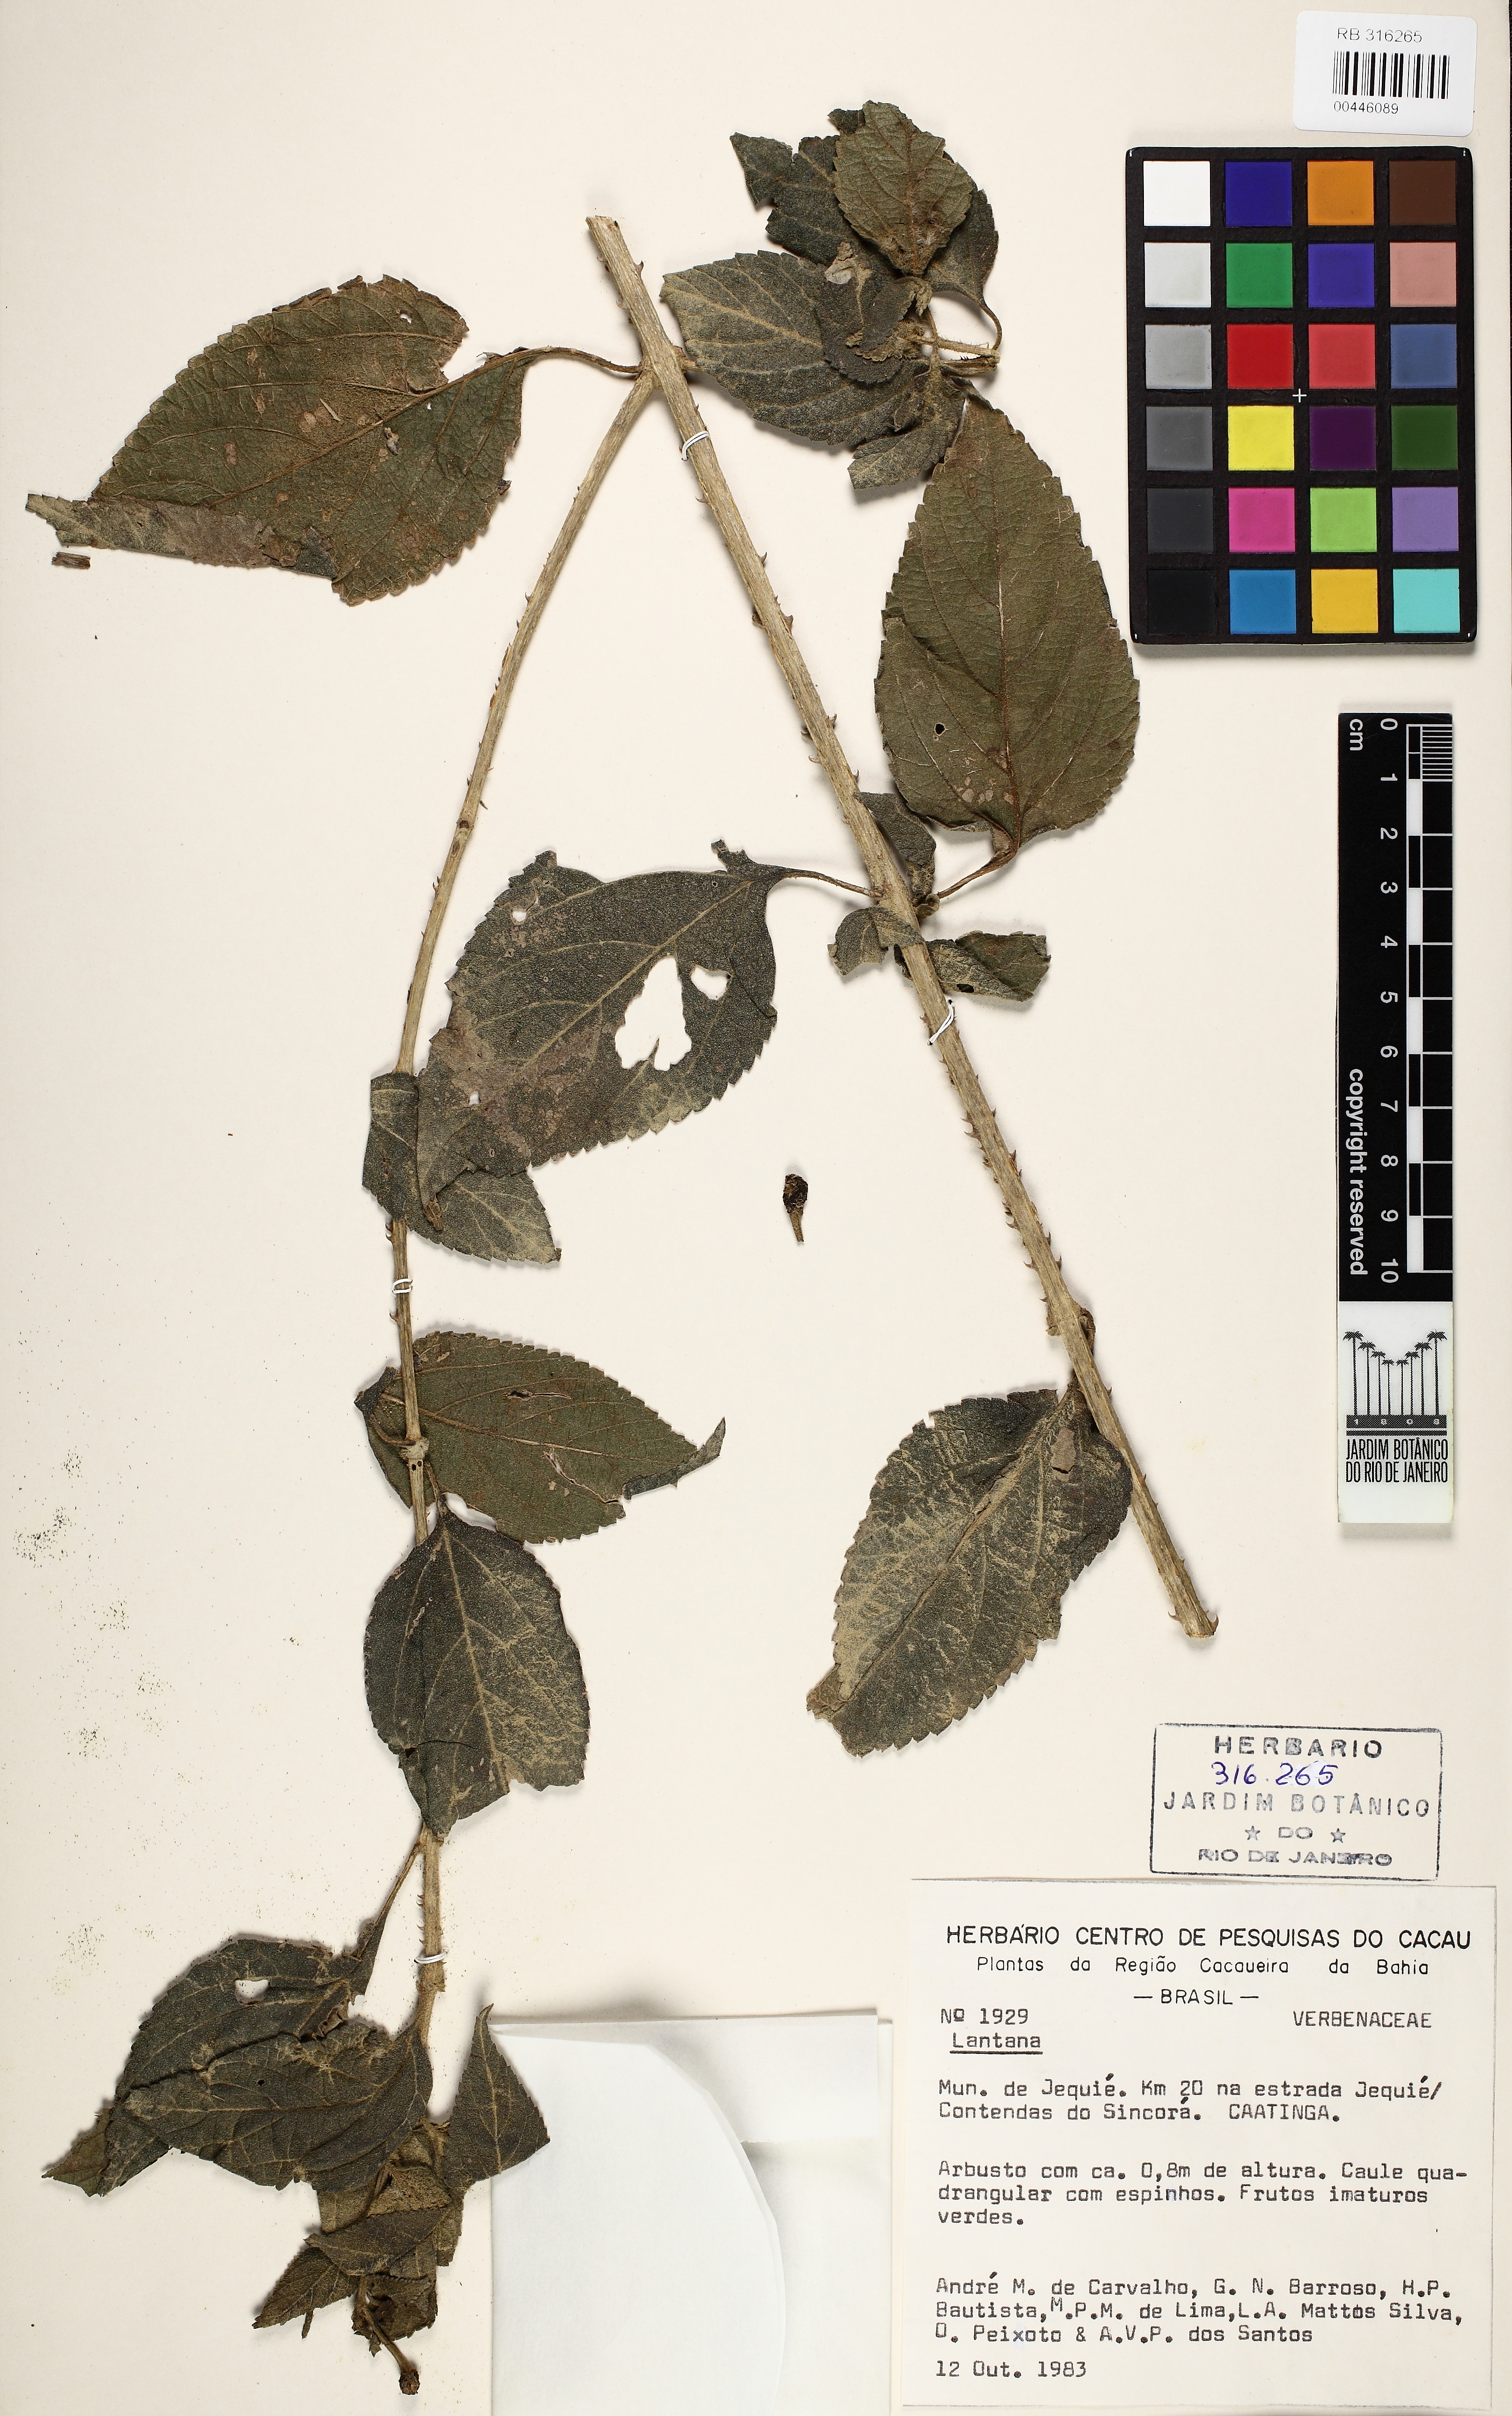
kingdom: Plantae
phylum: Tracheophyta
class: Magnoliopsida
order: Lamiales
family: Verbenaceae
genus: Lantana
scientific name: Lantana
